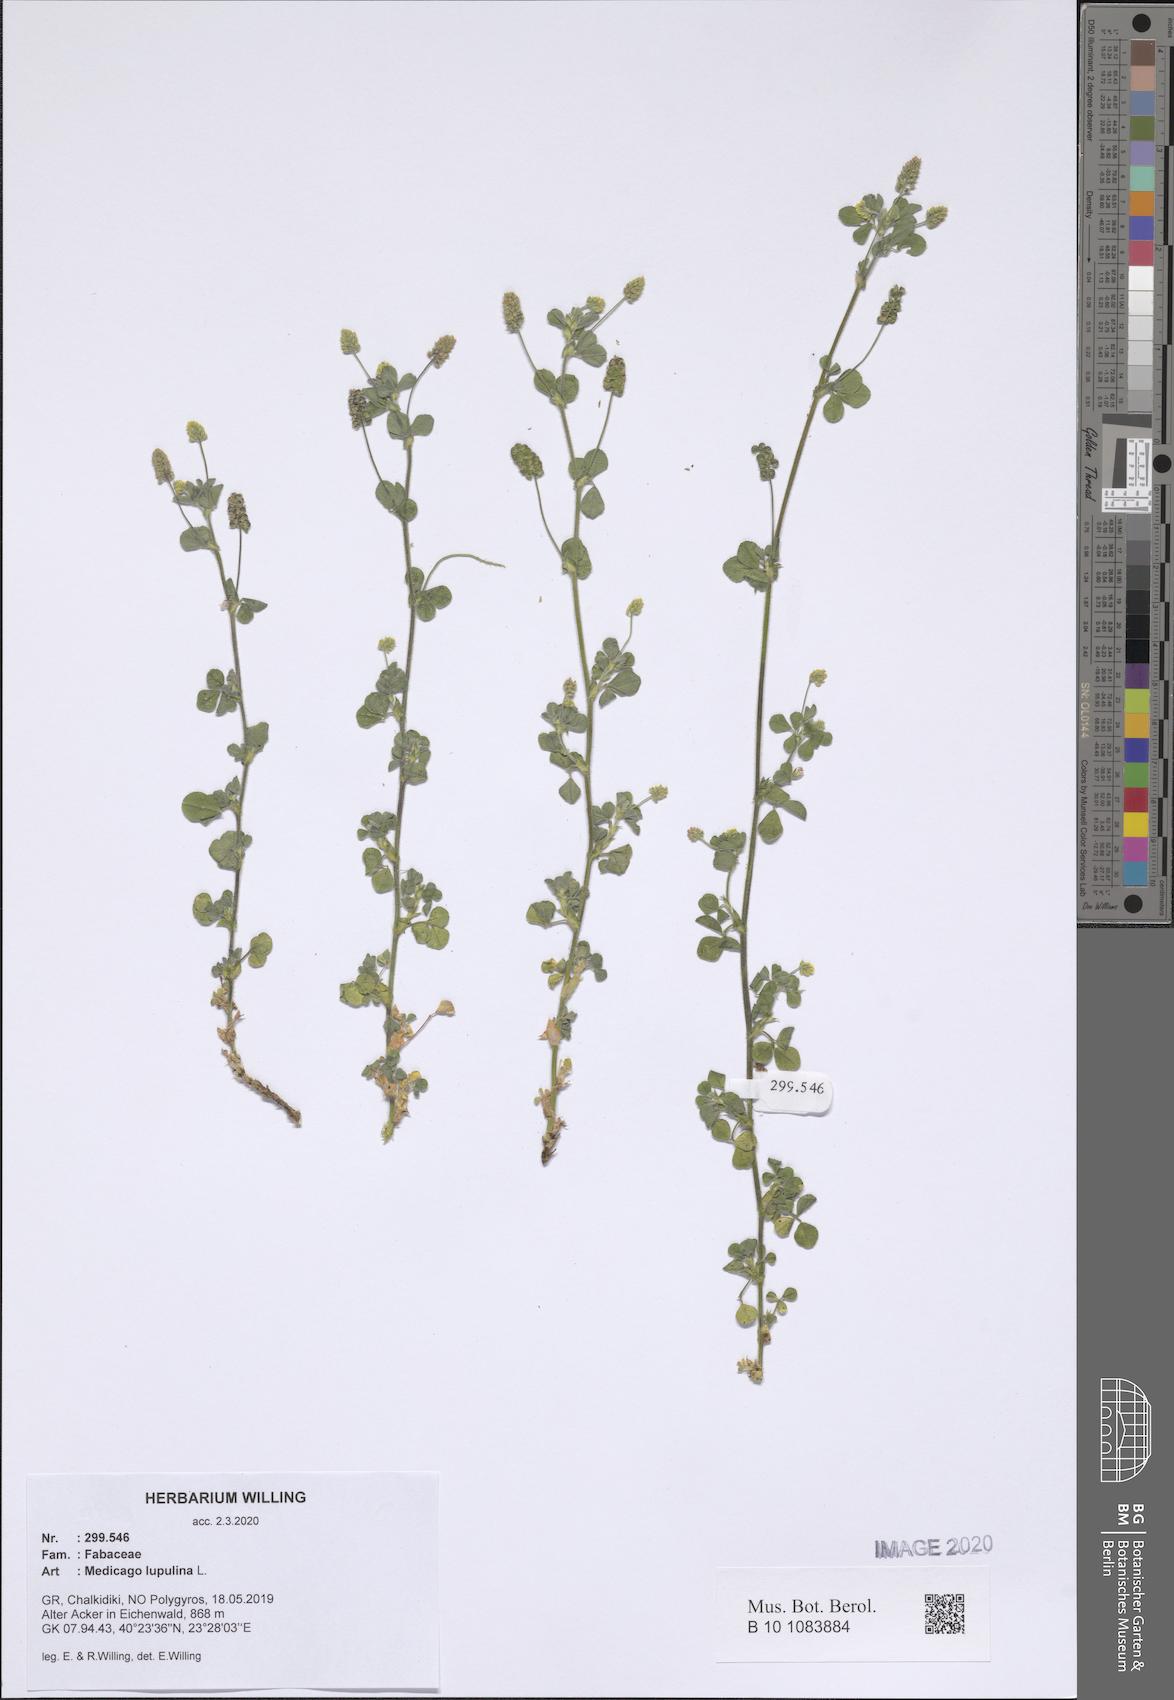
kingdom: Plantae
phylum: Tracheophyta
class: Magnoliopsida
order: Fabales
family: Fabaceae
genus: Medicago
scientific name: Medicago lupulina
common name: Black medick
